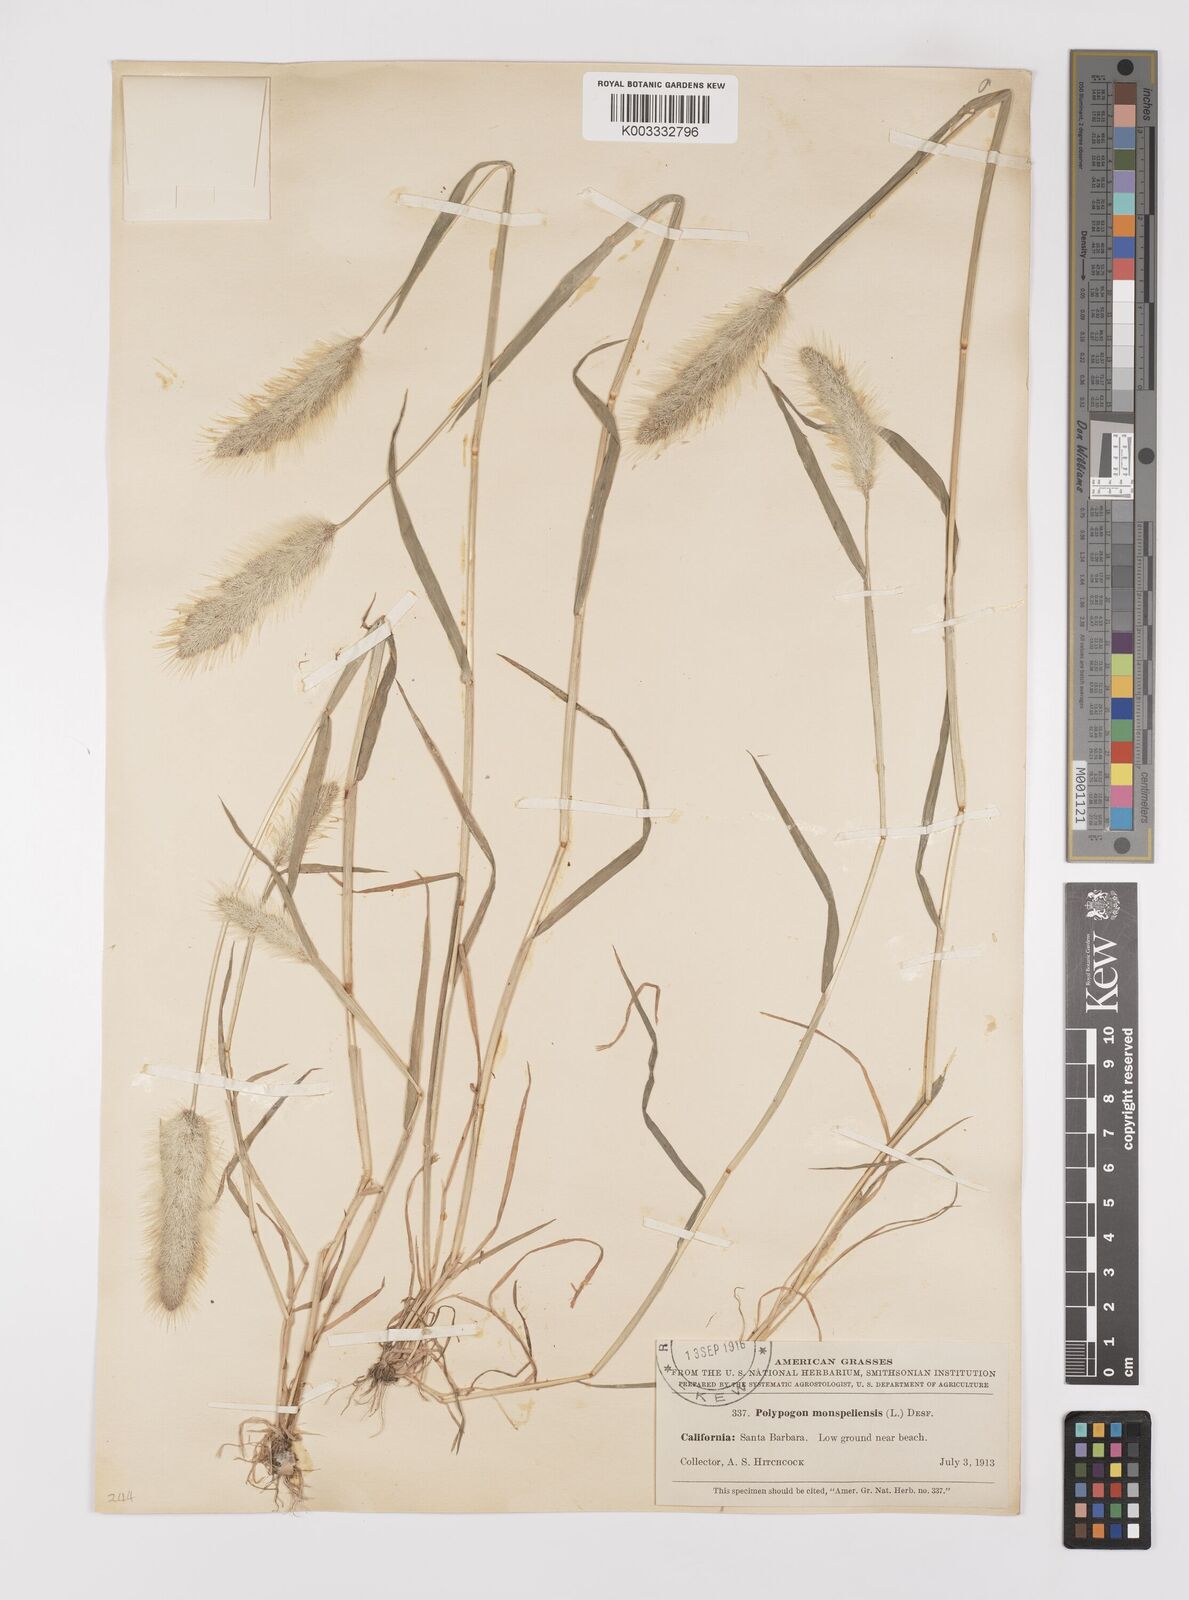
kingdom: Plantae
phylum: Tracheophyta
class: Liliopsida
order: Poales
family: Poaceae
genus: Polypogon
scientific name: Polypogon monspeliensis
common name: Annual rabbitsfoot grass
